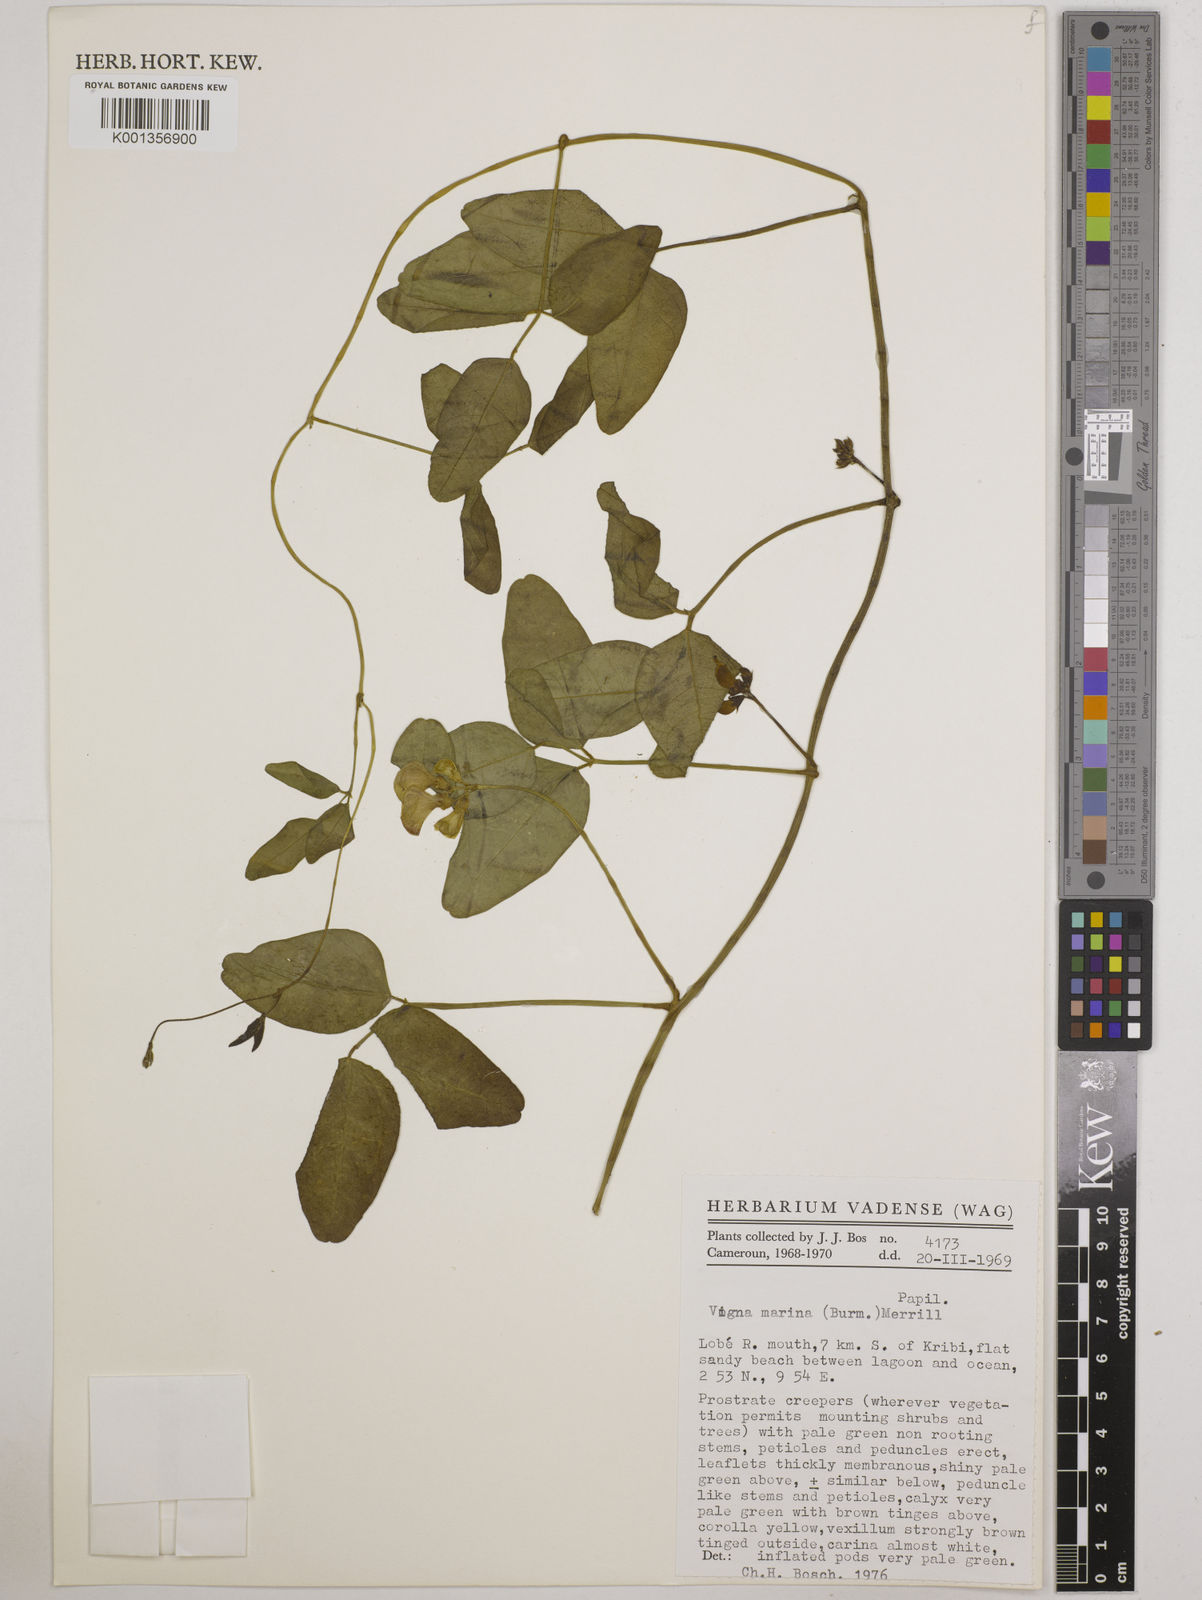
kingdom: Plantae
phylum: Tracheophyta
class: Magnoliopsida
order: Fabales
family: Fabaceae
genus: Vigna
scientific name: Vigna marina
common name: Dune-bean
